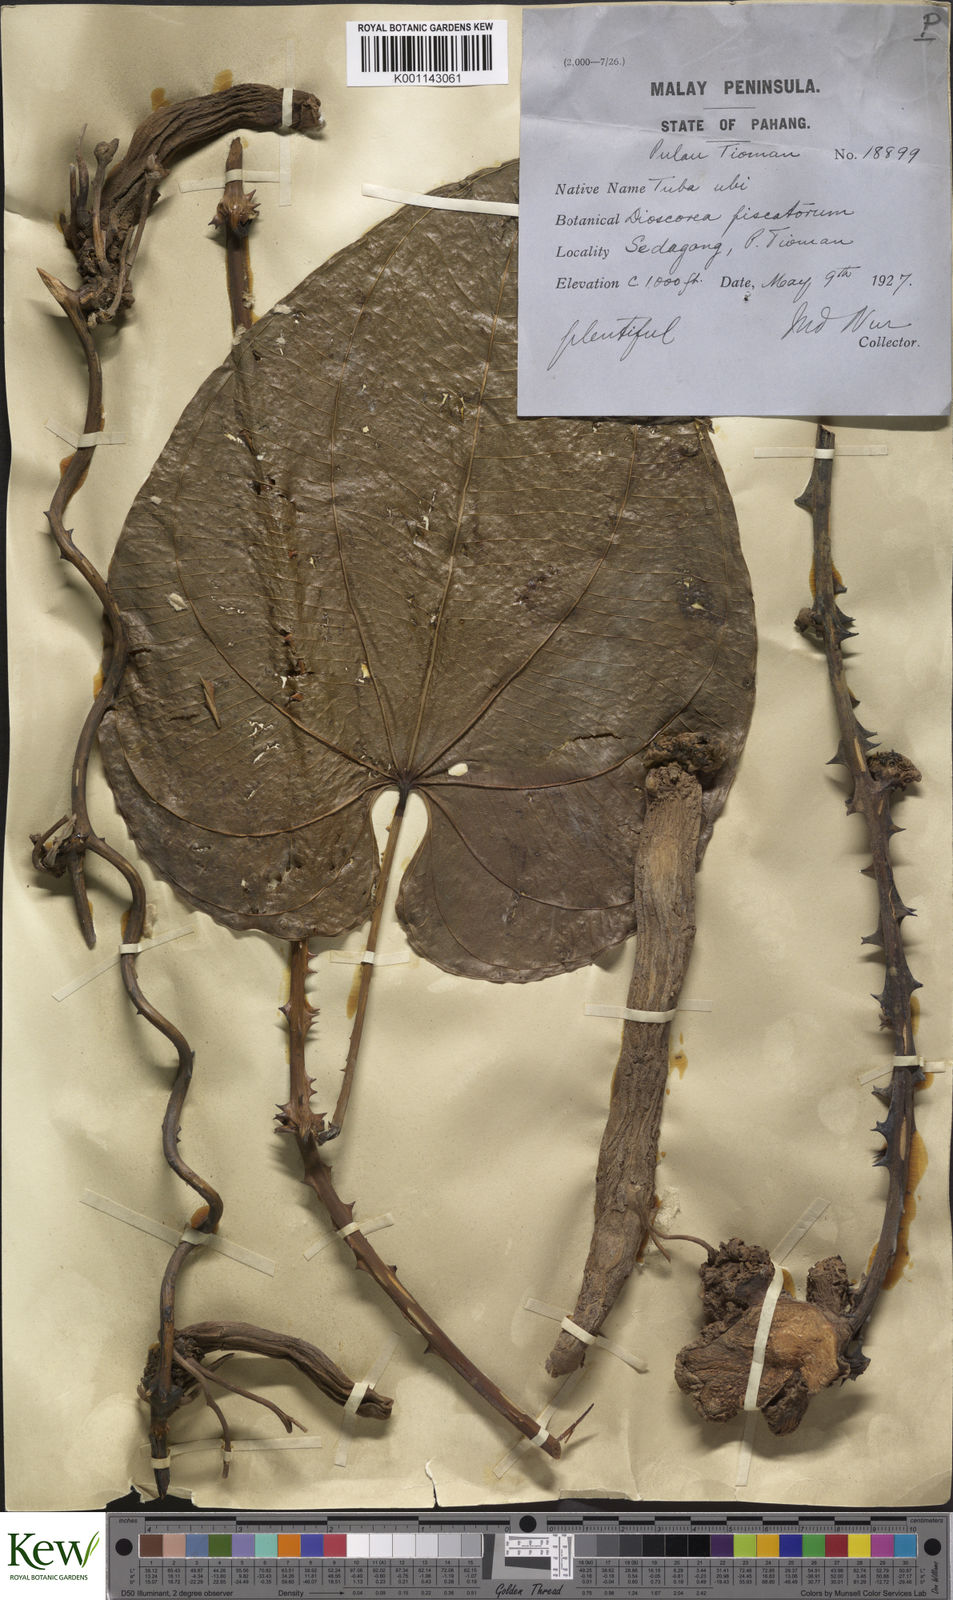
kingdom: Plantae
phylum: Tracheophyta
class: Liliopsida
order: Dioscoreales
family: Dioscoreaceae
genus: Dioscorea
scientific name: Dioscorea piscatorum
